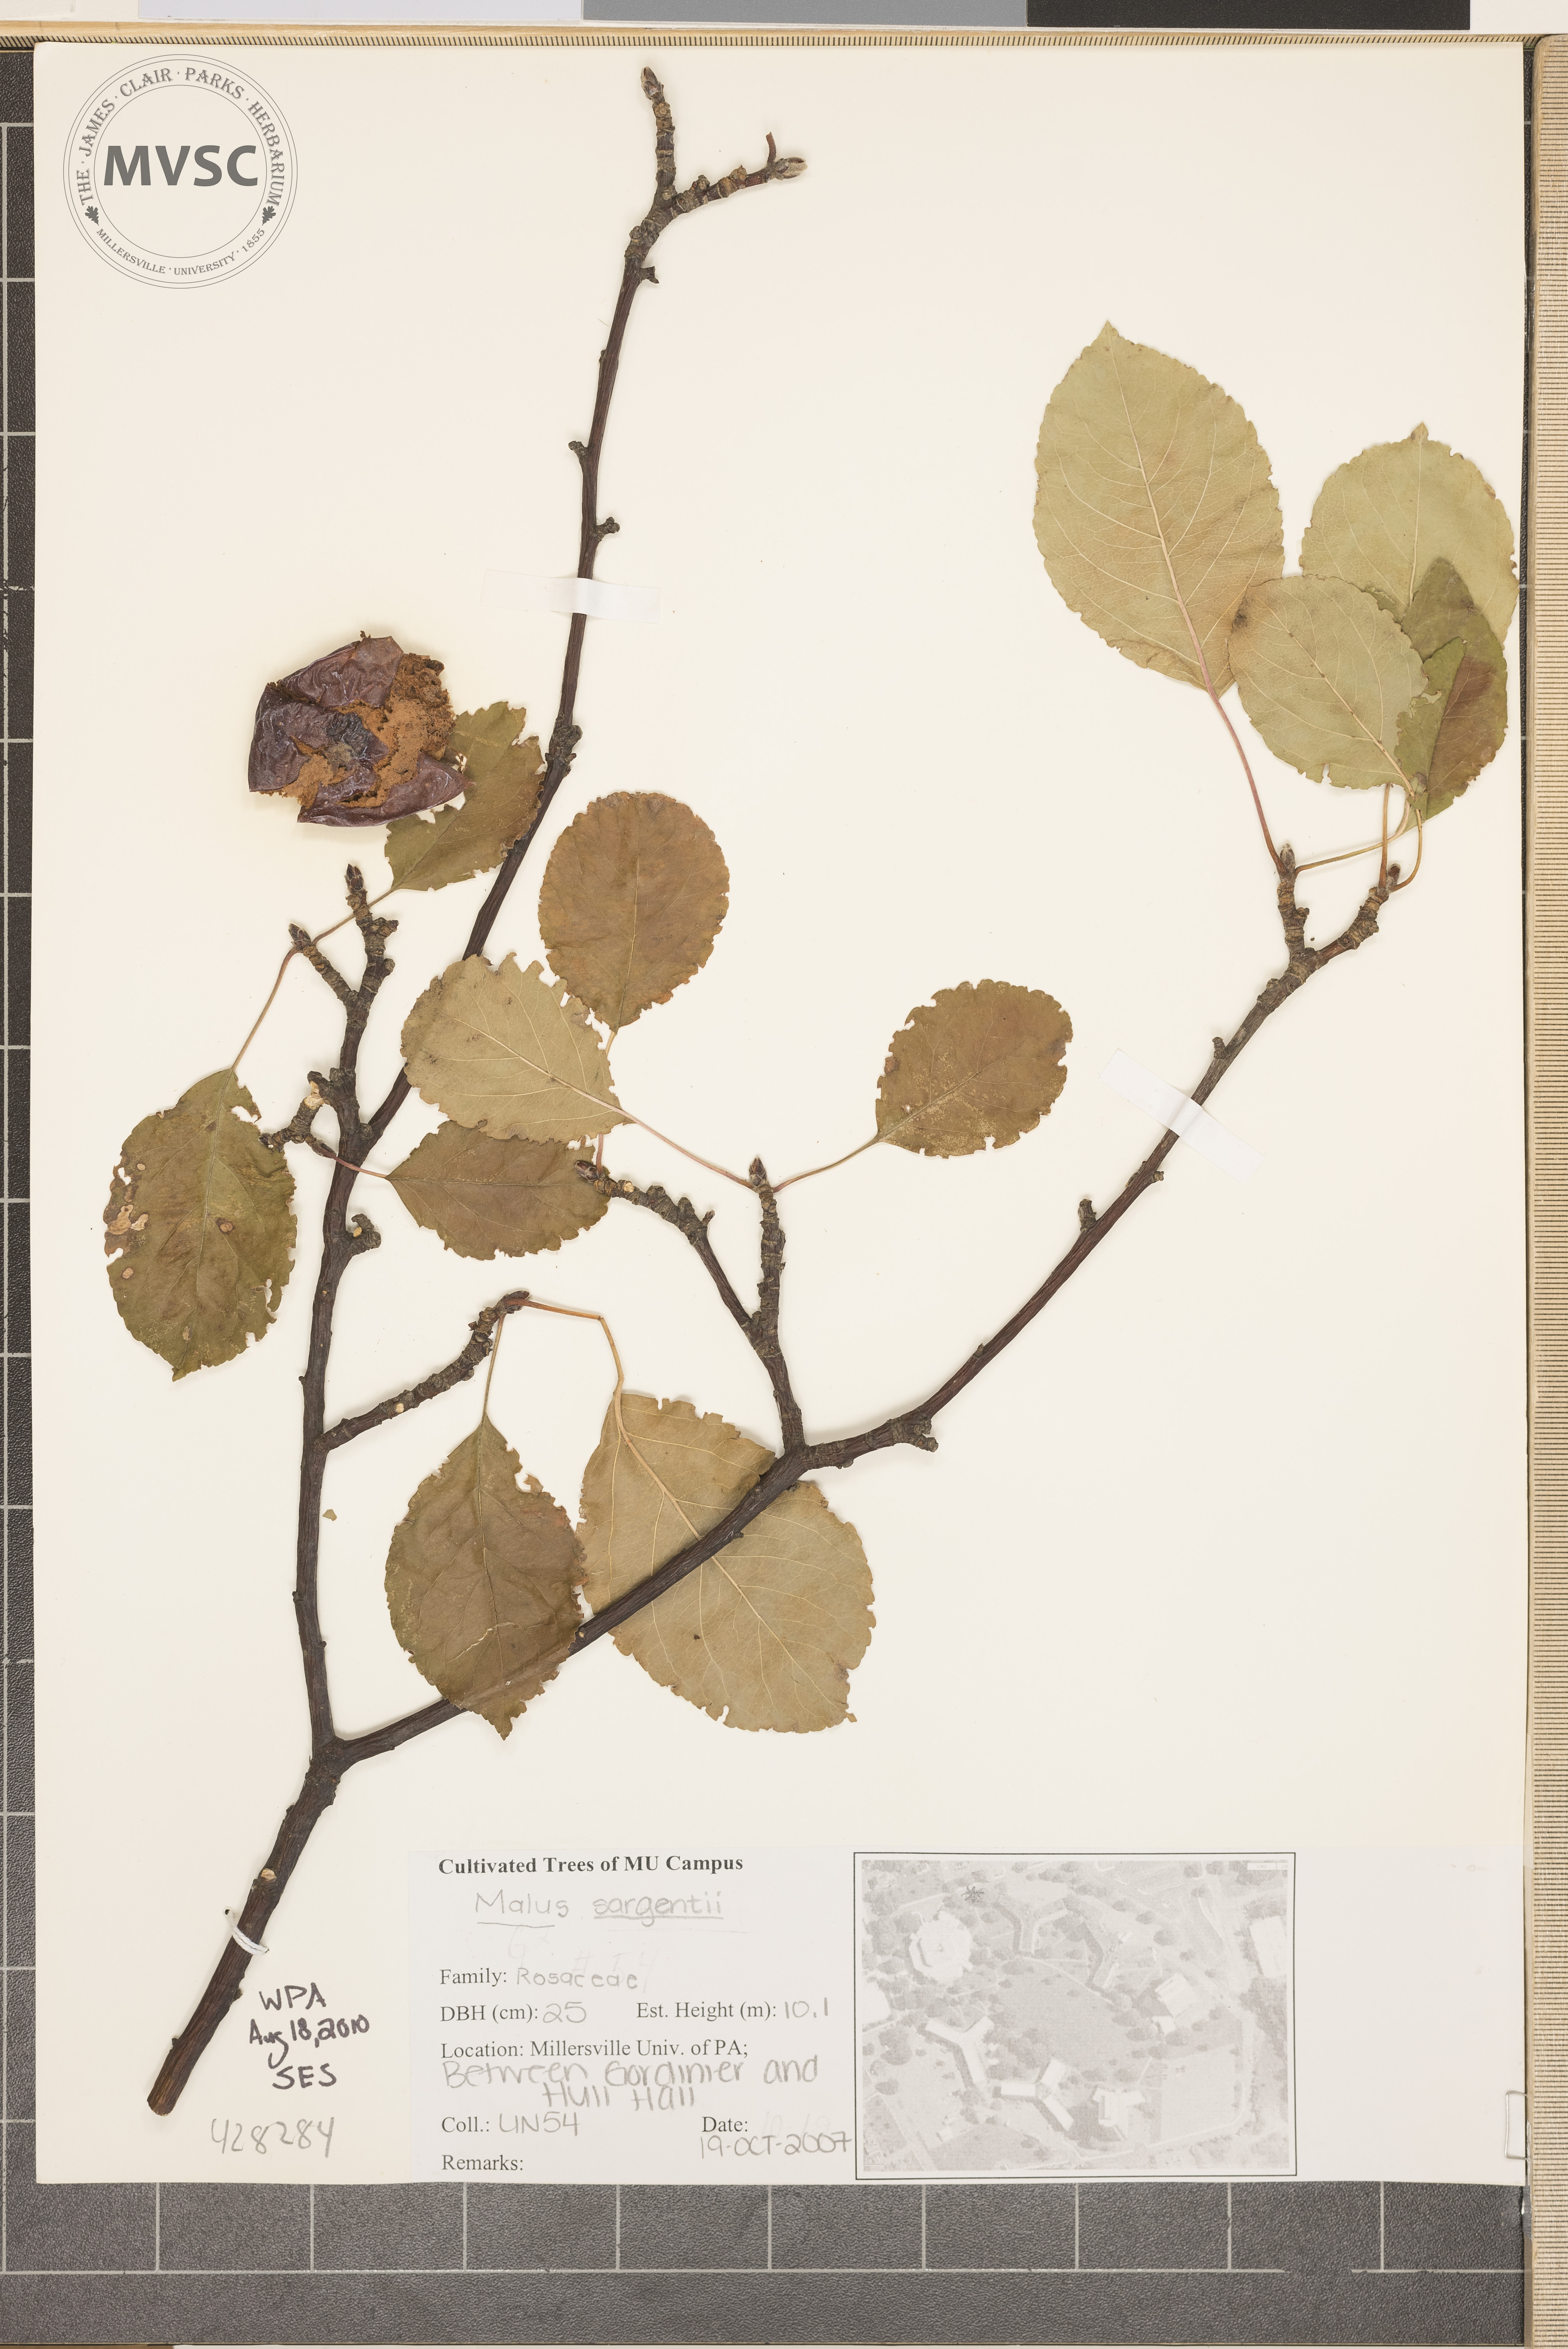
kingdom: Plantae
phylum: Tracheophyta
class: Magnoliopsida
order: Rosales
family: Rosaceae
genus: Malus
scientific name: Malus toringo
